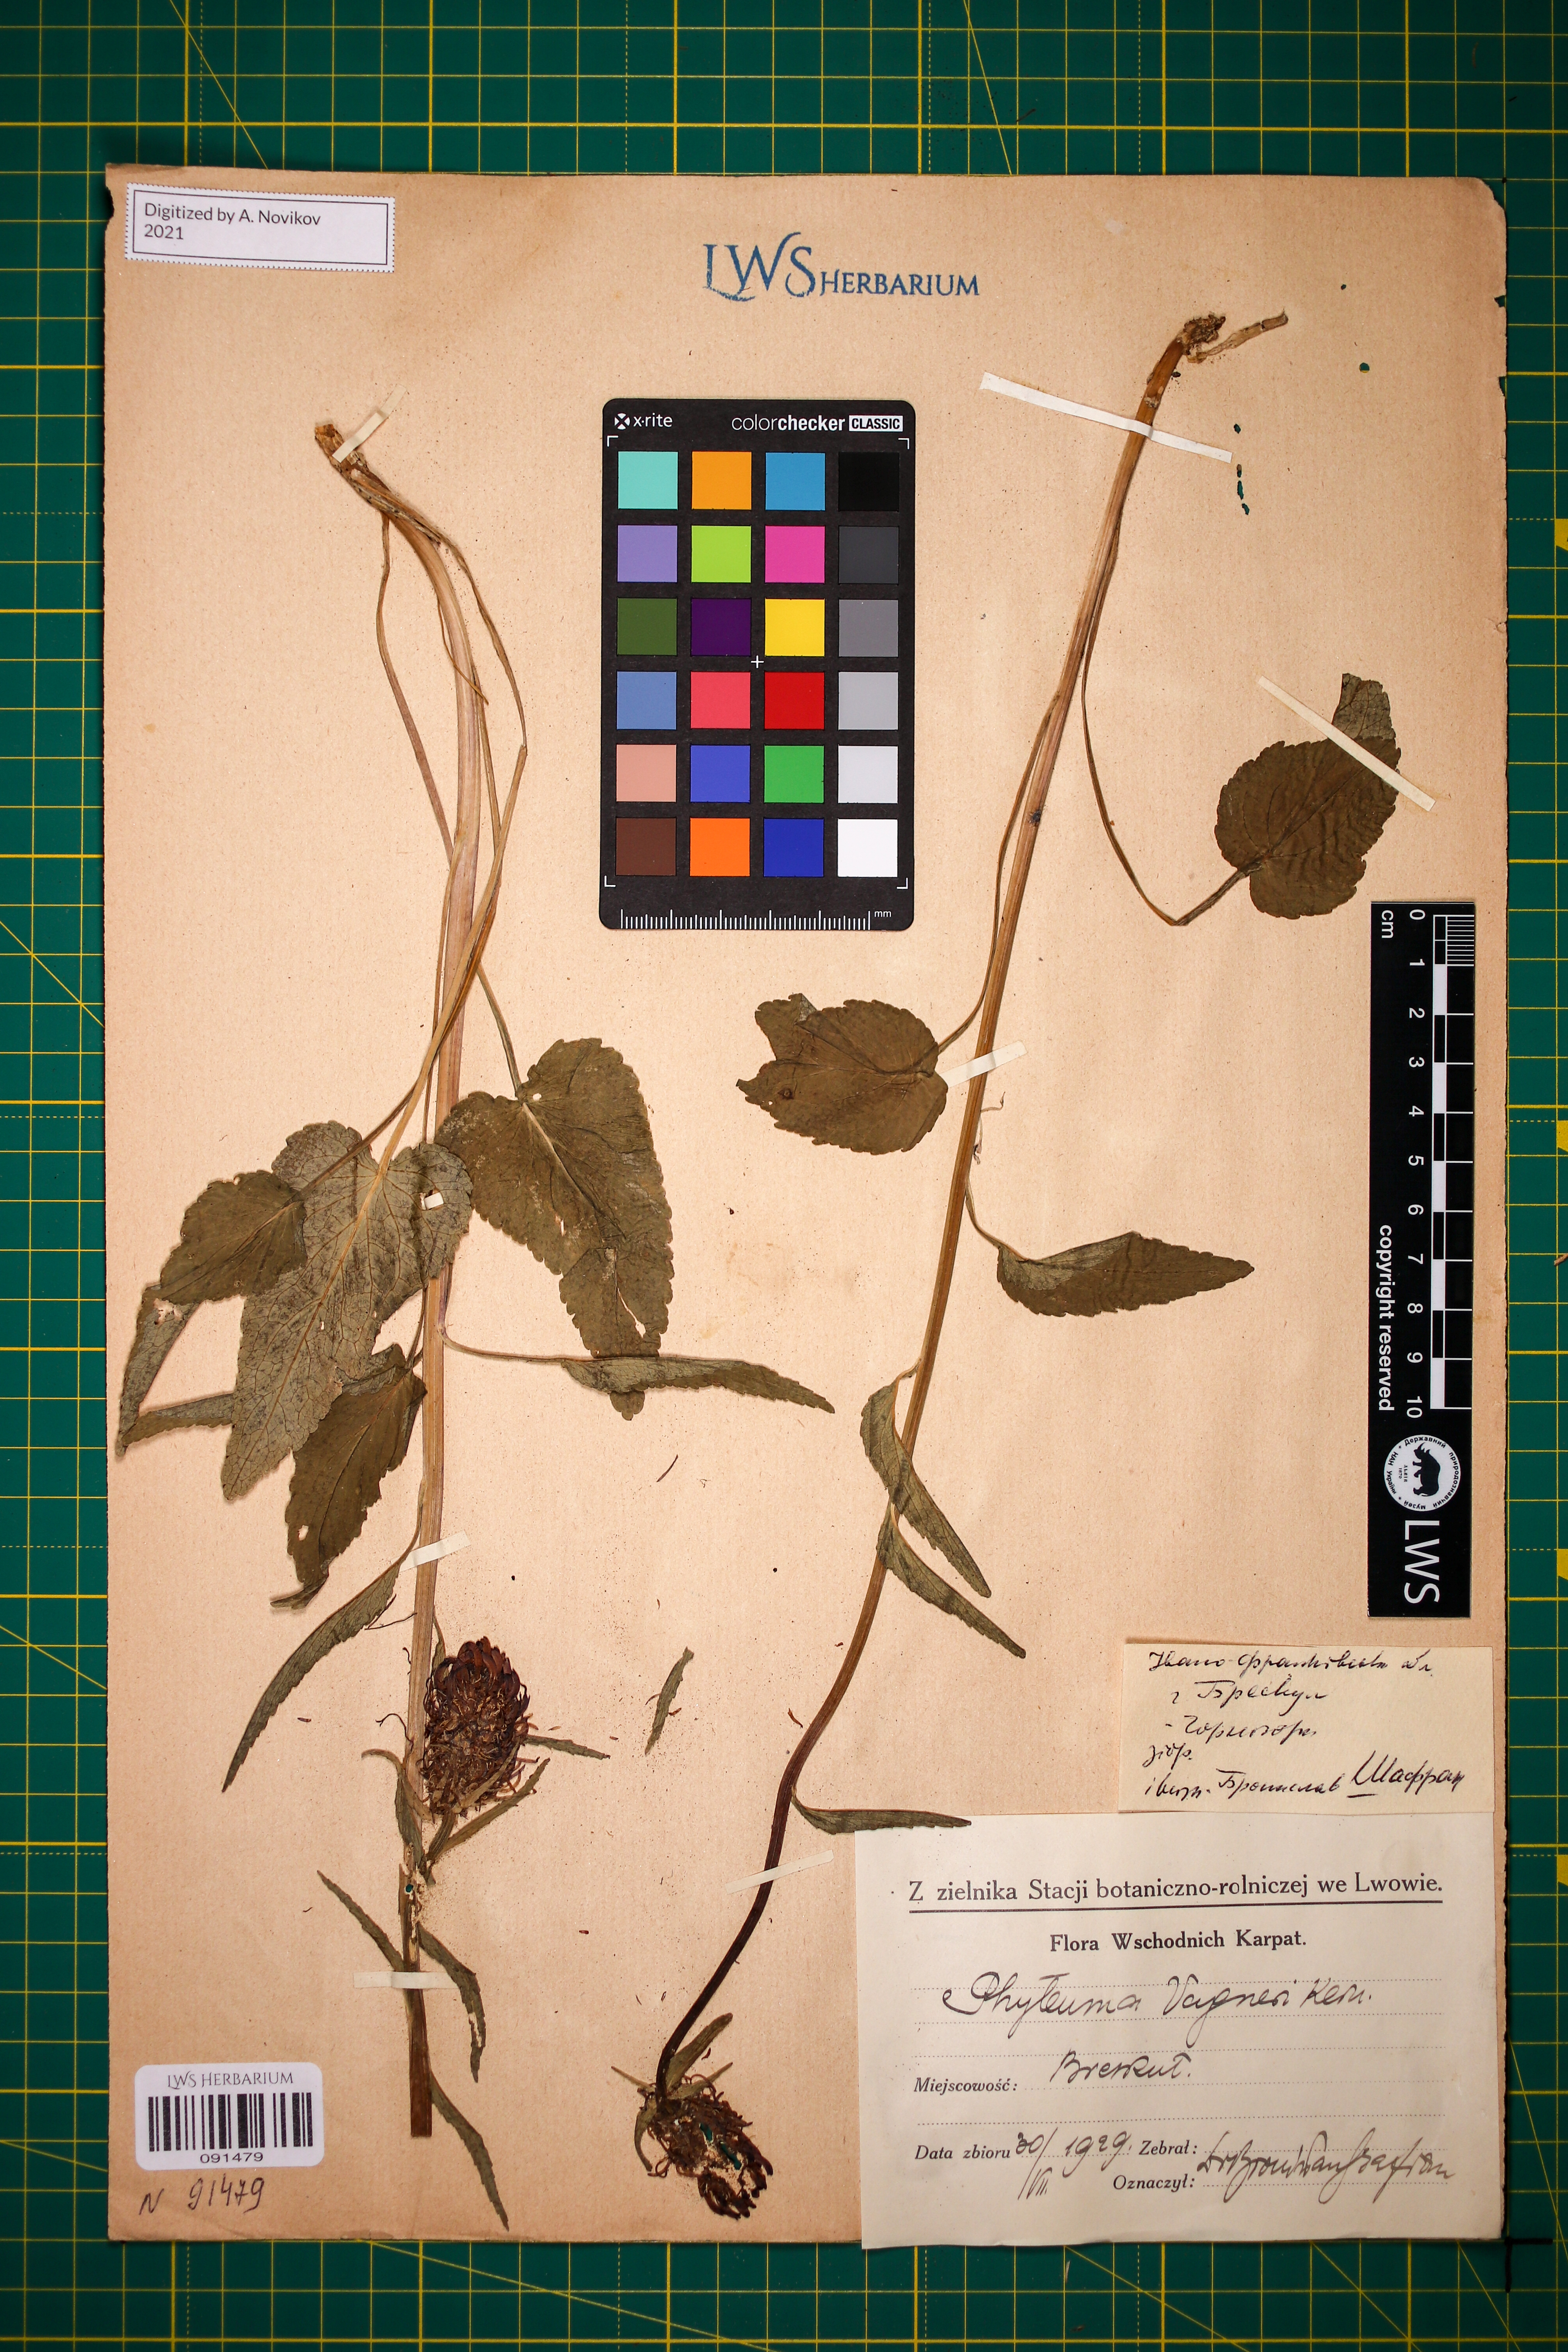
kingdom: Plantae
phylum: Tracheophyta
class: Magnoliopsida
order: Asterales
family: Campanulaceae
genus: Phyteuma
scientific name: Phyteuma vagneri
